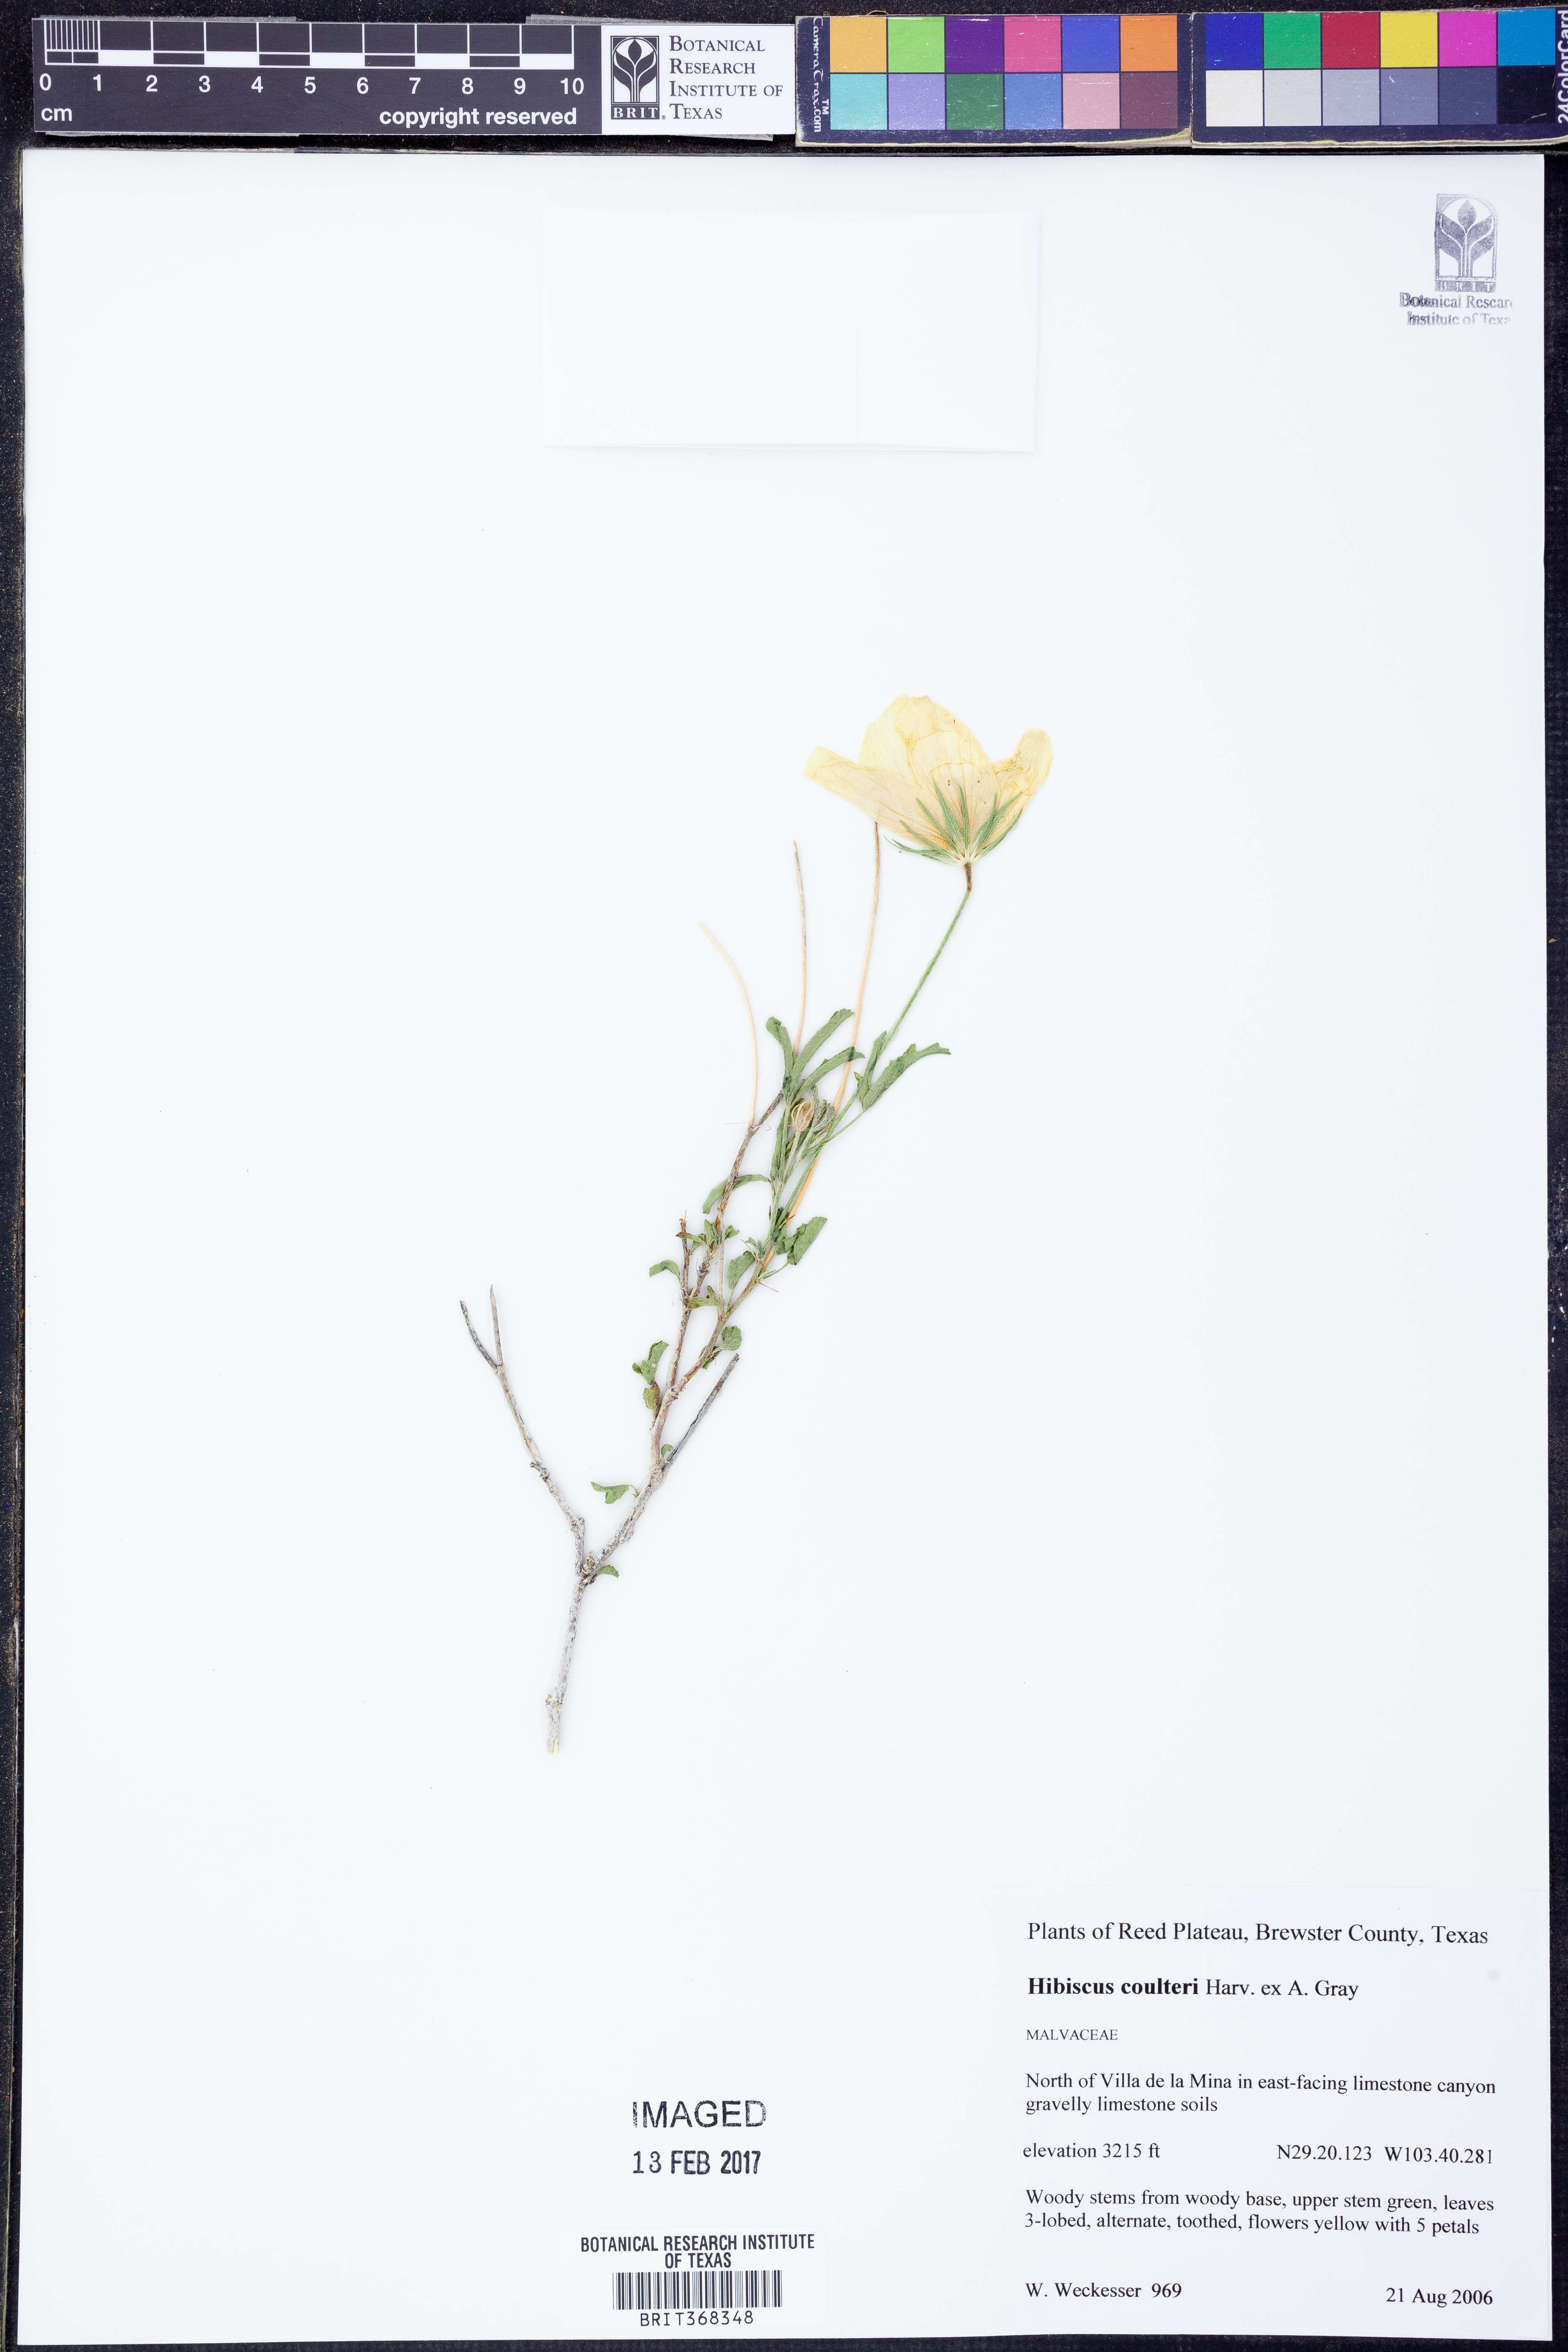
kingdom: Plantae
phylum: Tracheophyta
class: Magnoliopsida
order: Malvales
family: Malvaceae
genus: Hibiscus
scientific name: Hibiscus coulteri
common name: Desert rose-mallow
